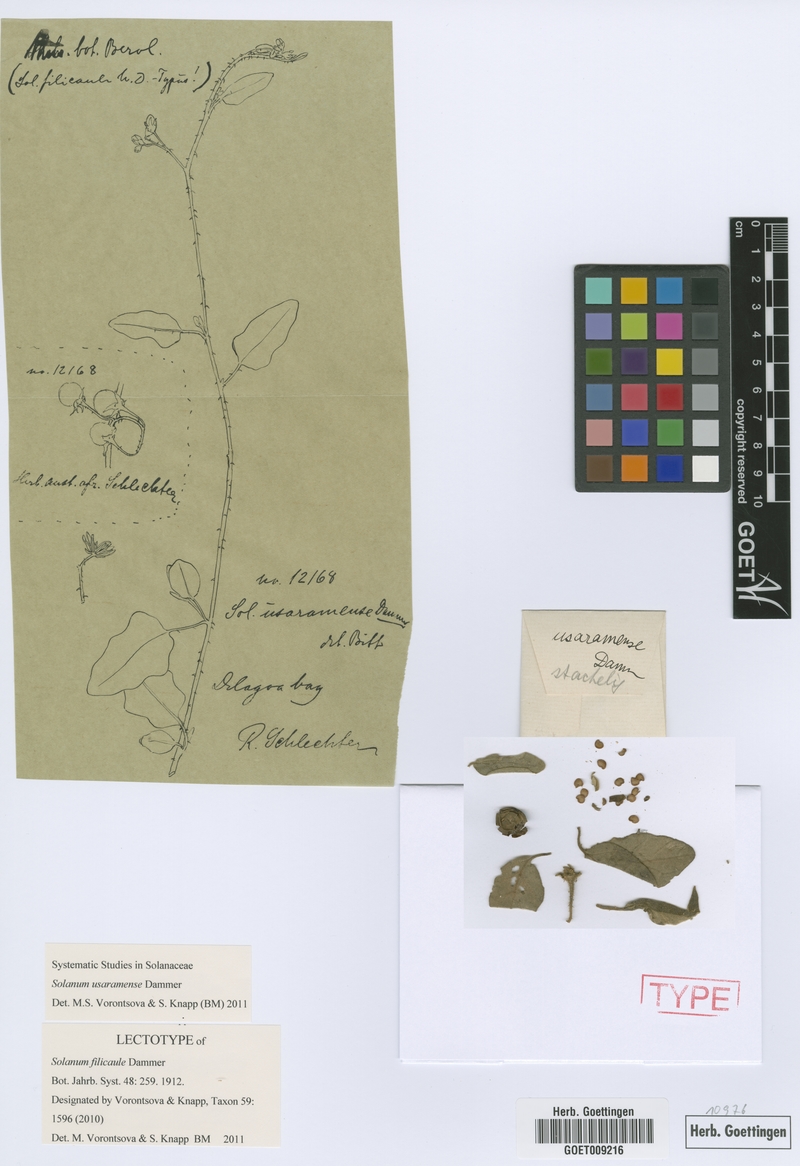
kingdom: Plantae
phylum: Tracheophyta
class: Magnoliopsida
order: Solanales
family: Solanaceae
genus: Solanum
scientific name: Solanum usaramense
